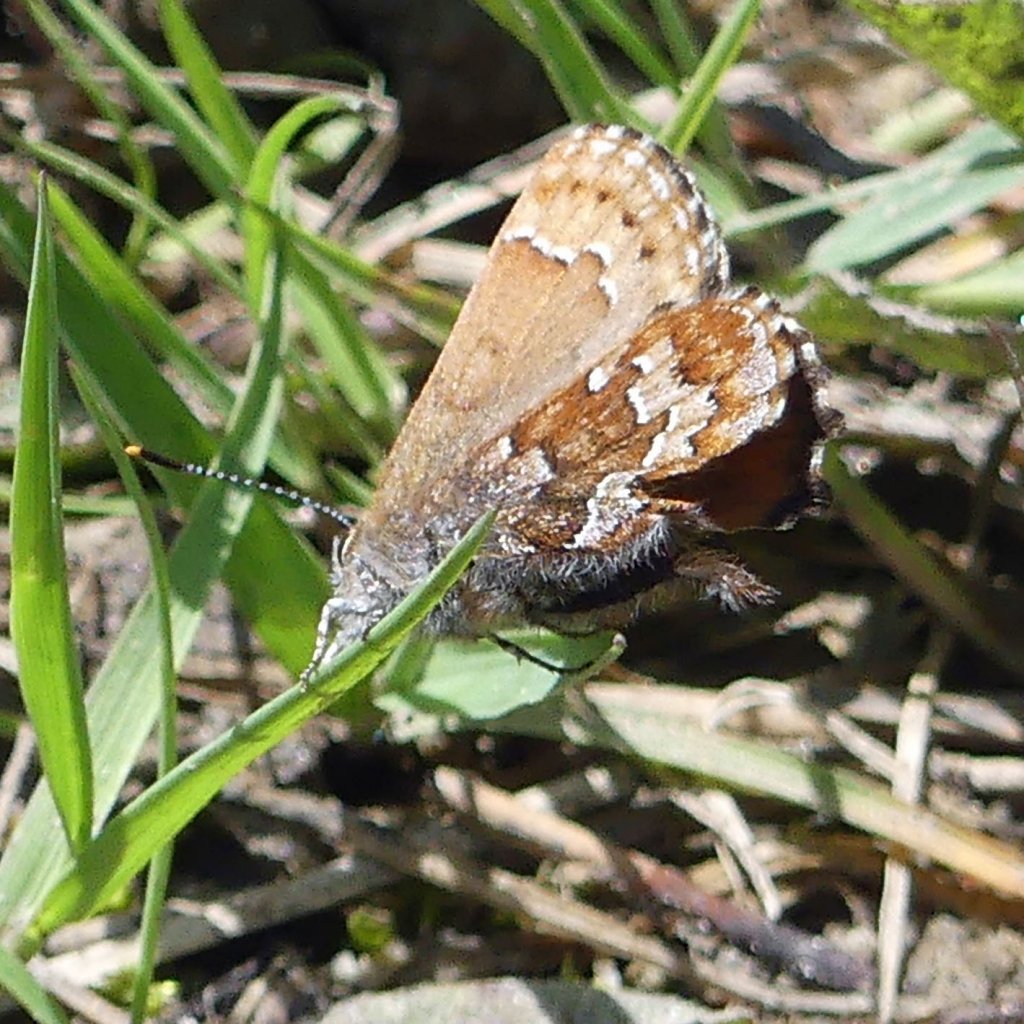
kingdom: Animalia
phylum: Arthropoda
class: Insecta
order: Lepidoptera
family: Lycaenidae
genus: Incisalia
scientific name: Incisalia niphon
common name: Eastern Pine Elfin
